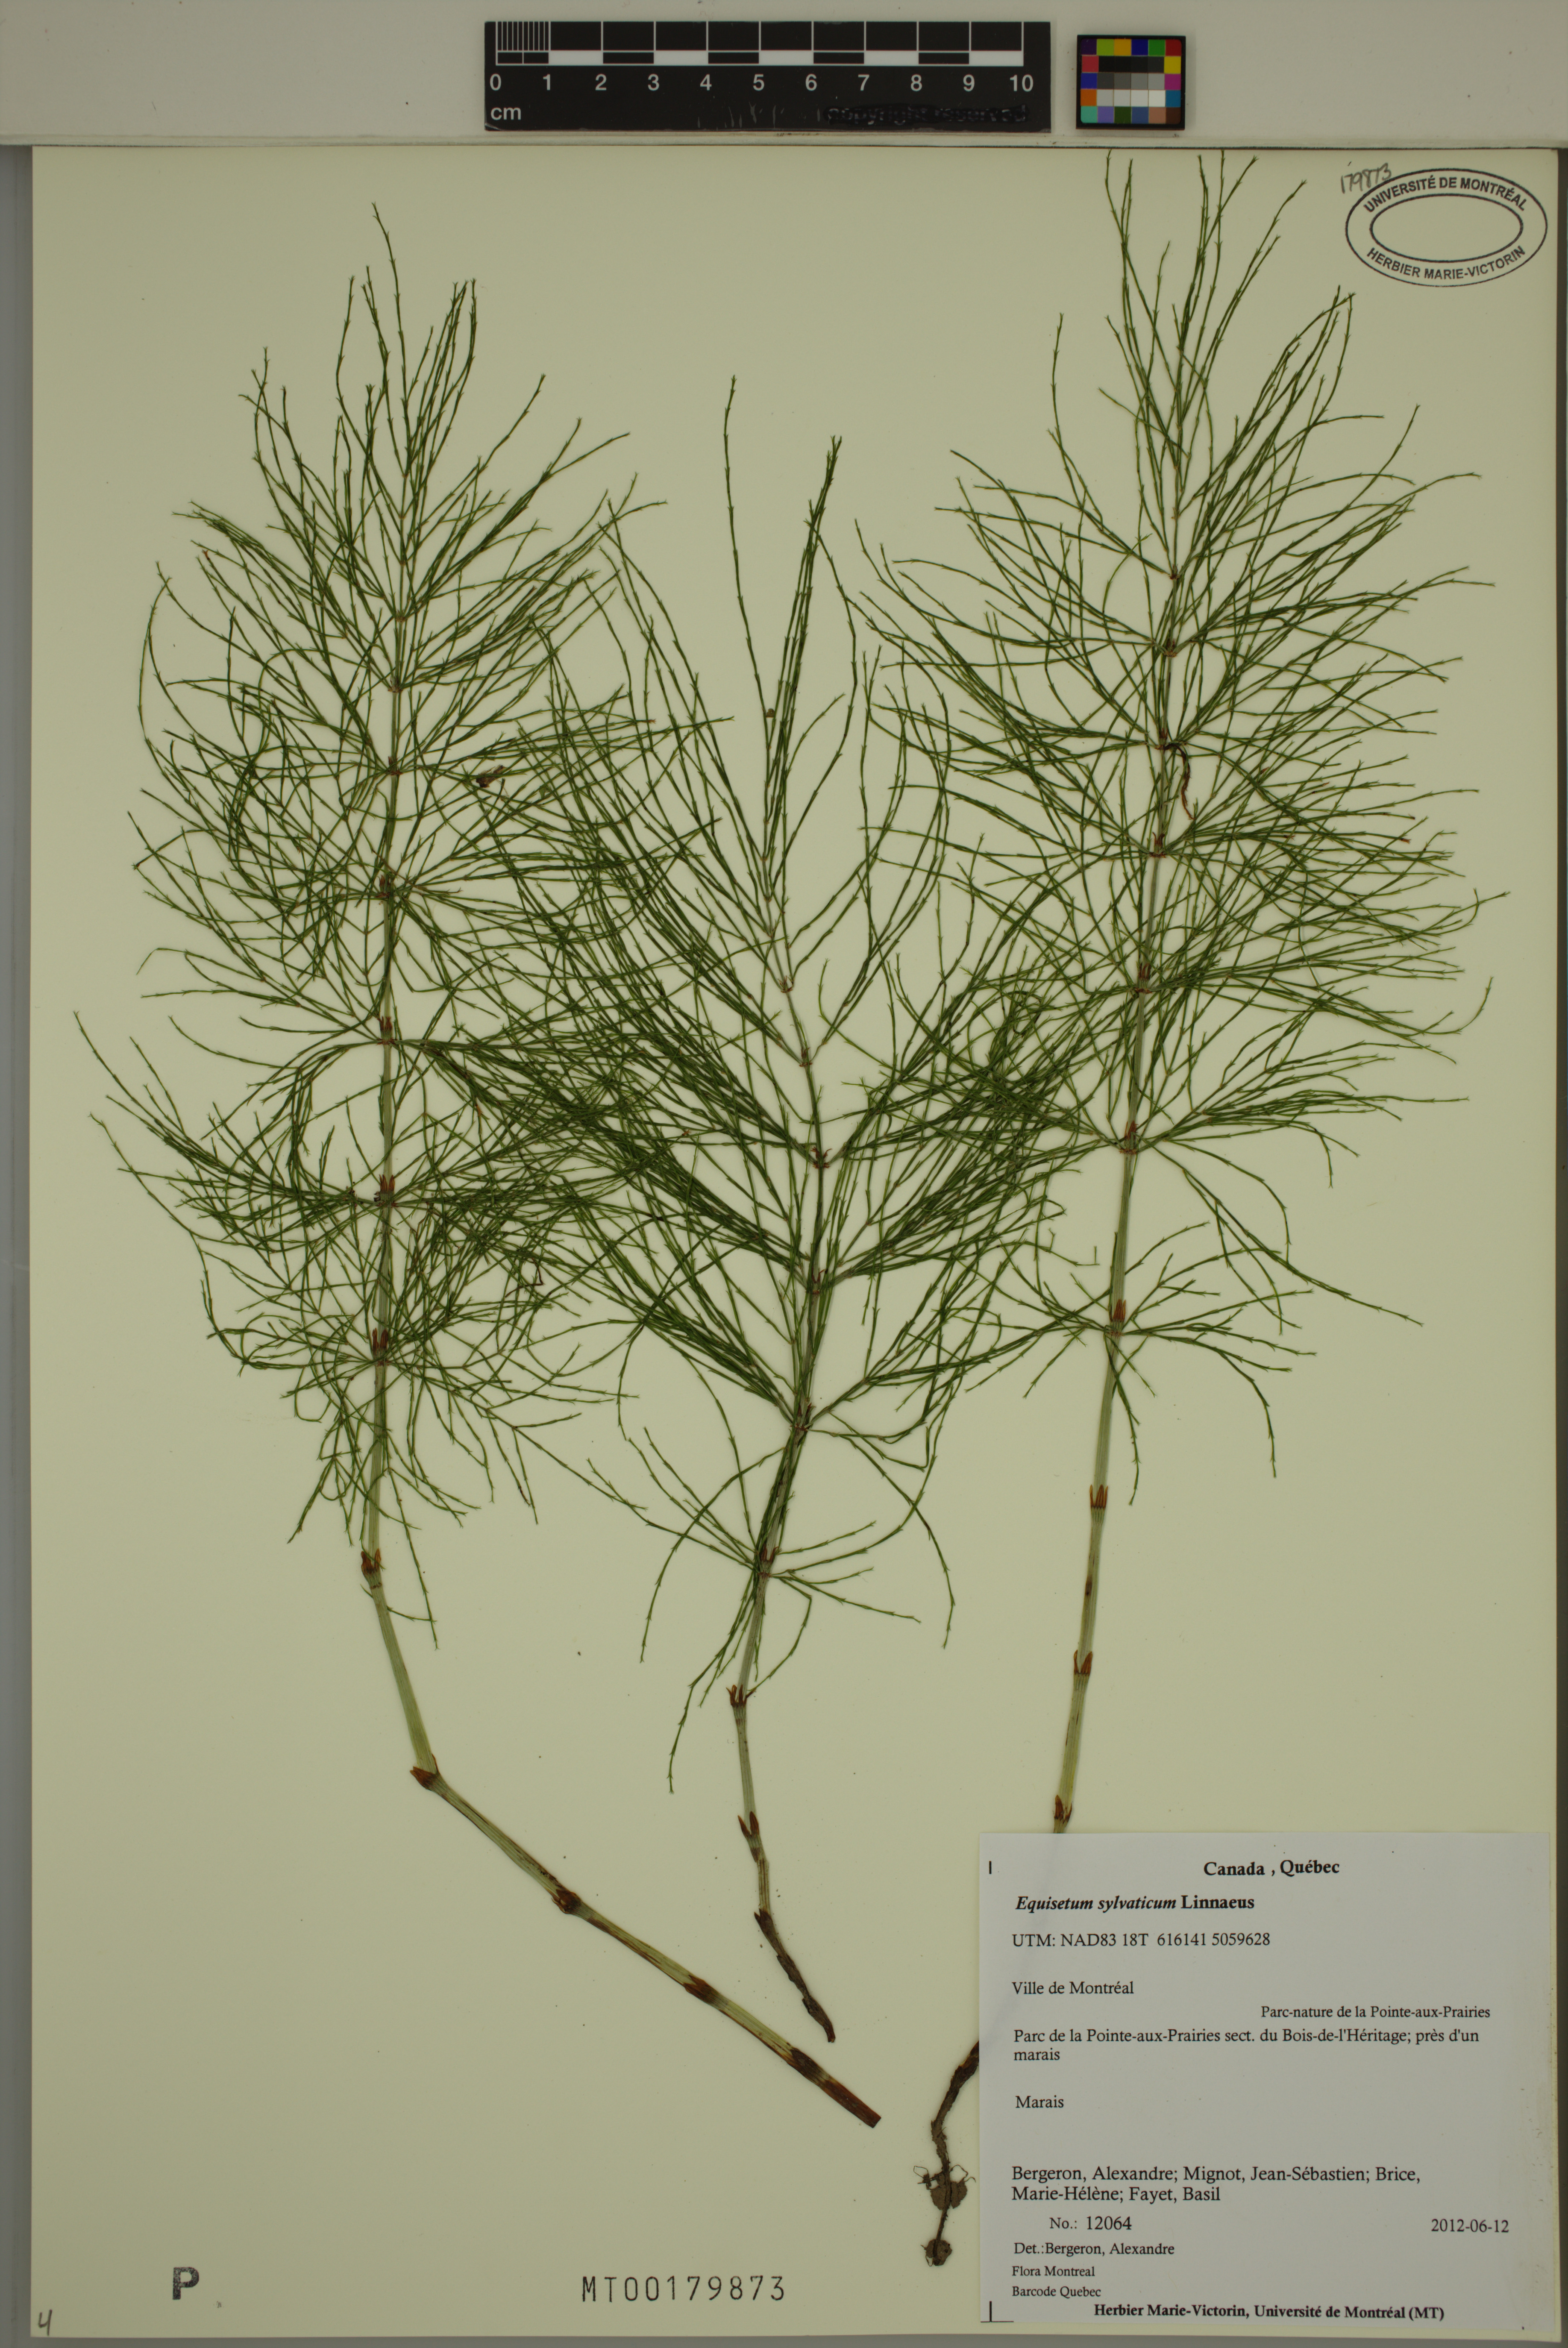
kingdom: Plantae
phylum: Tracheophyta
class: Polypodiopsida
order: Equisetales
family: Equisetaceae
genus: Equisetum
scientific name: Equisetum sylvaticum
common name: Wood horsetail
